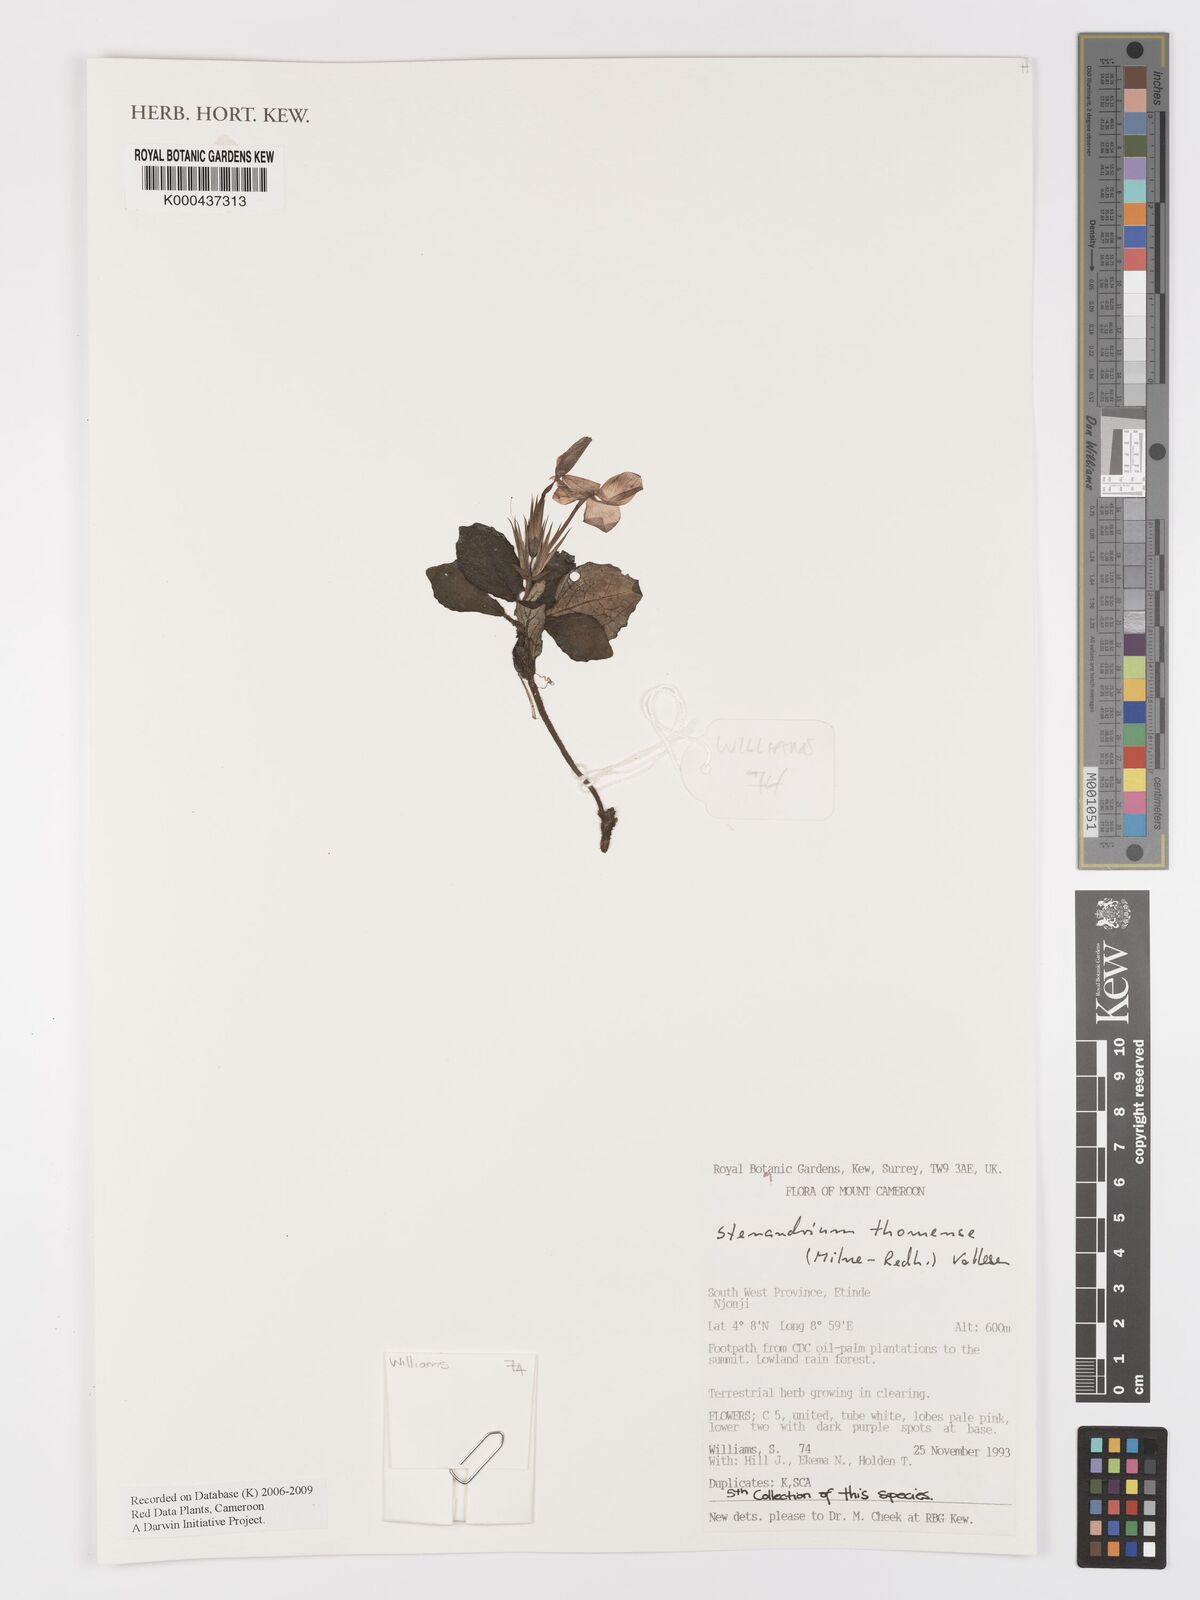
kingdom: Plantae
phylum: Tracheophyta
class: Magnoliopsida
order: Lamiales
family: Acanthaceae
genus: Stenandriopsis
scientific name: Stenandriopsis thomensis
